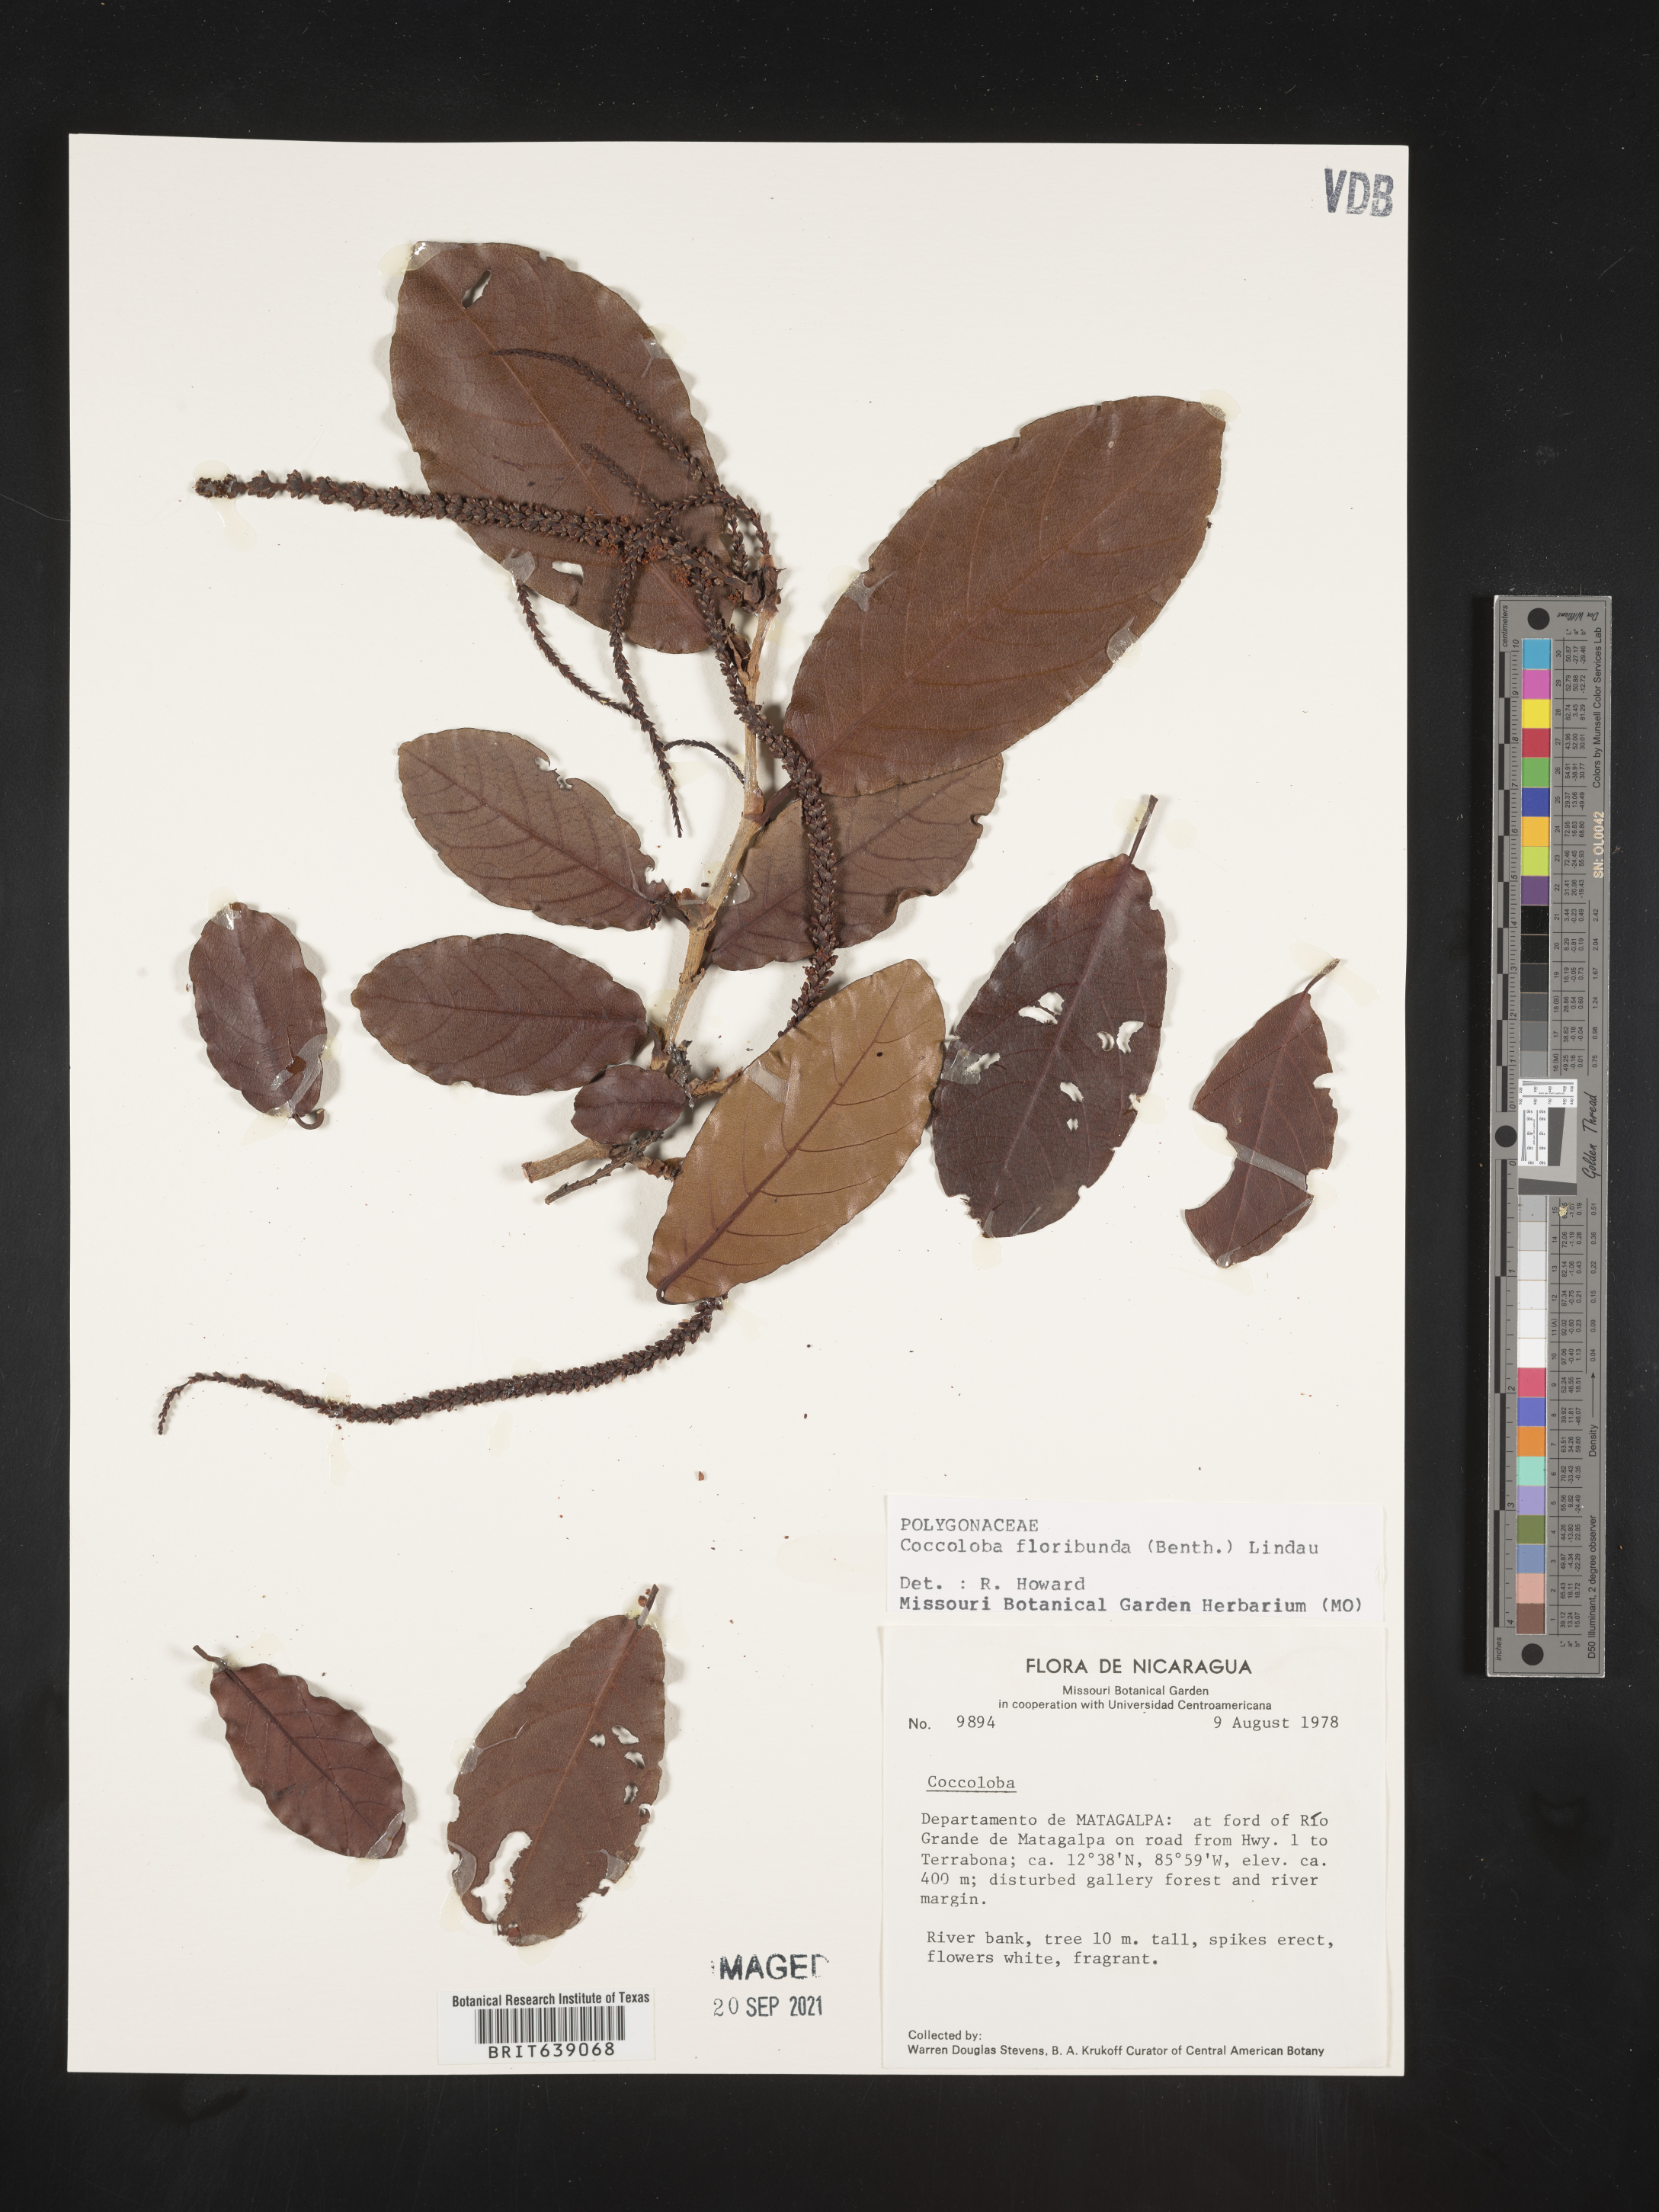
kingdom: Plantae
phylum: Tracheophyta
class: Magnoliopsida
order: Caryophyllales
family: Polygonaceae
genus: Coccoloba
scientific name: Coccoloba
